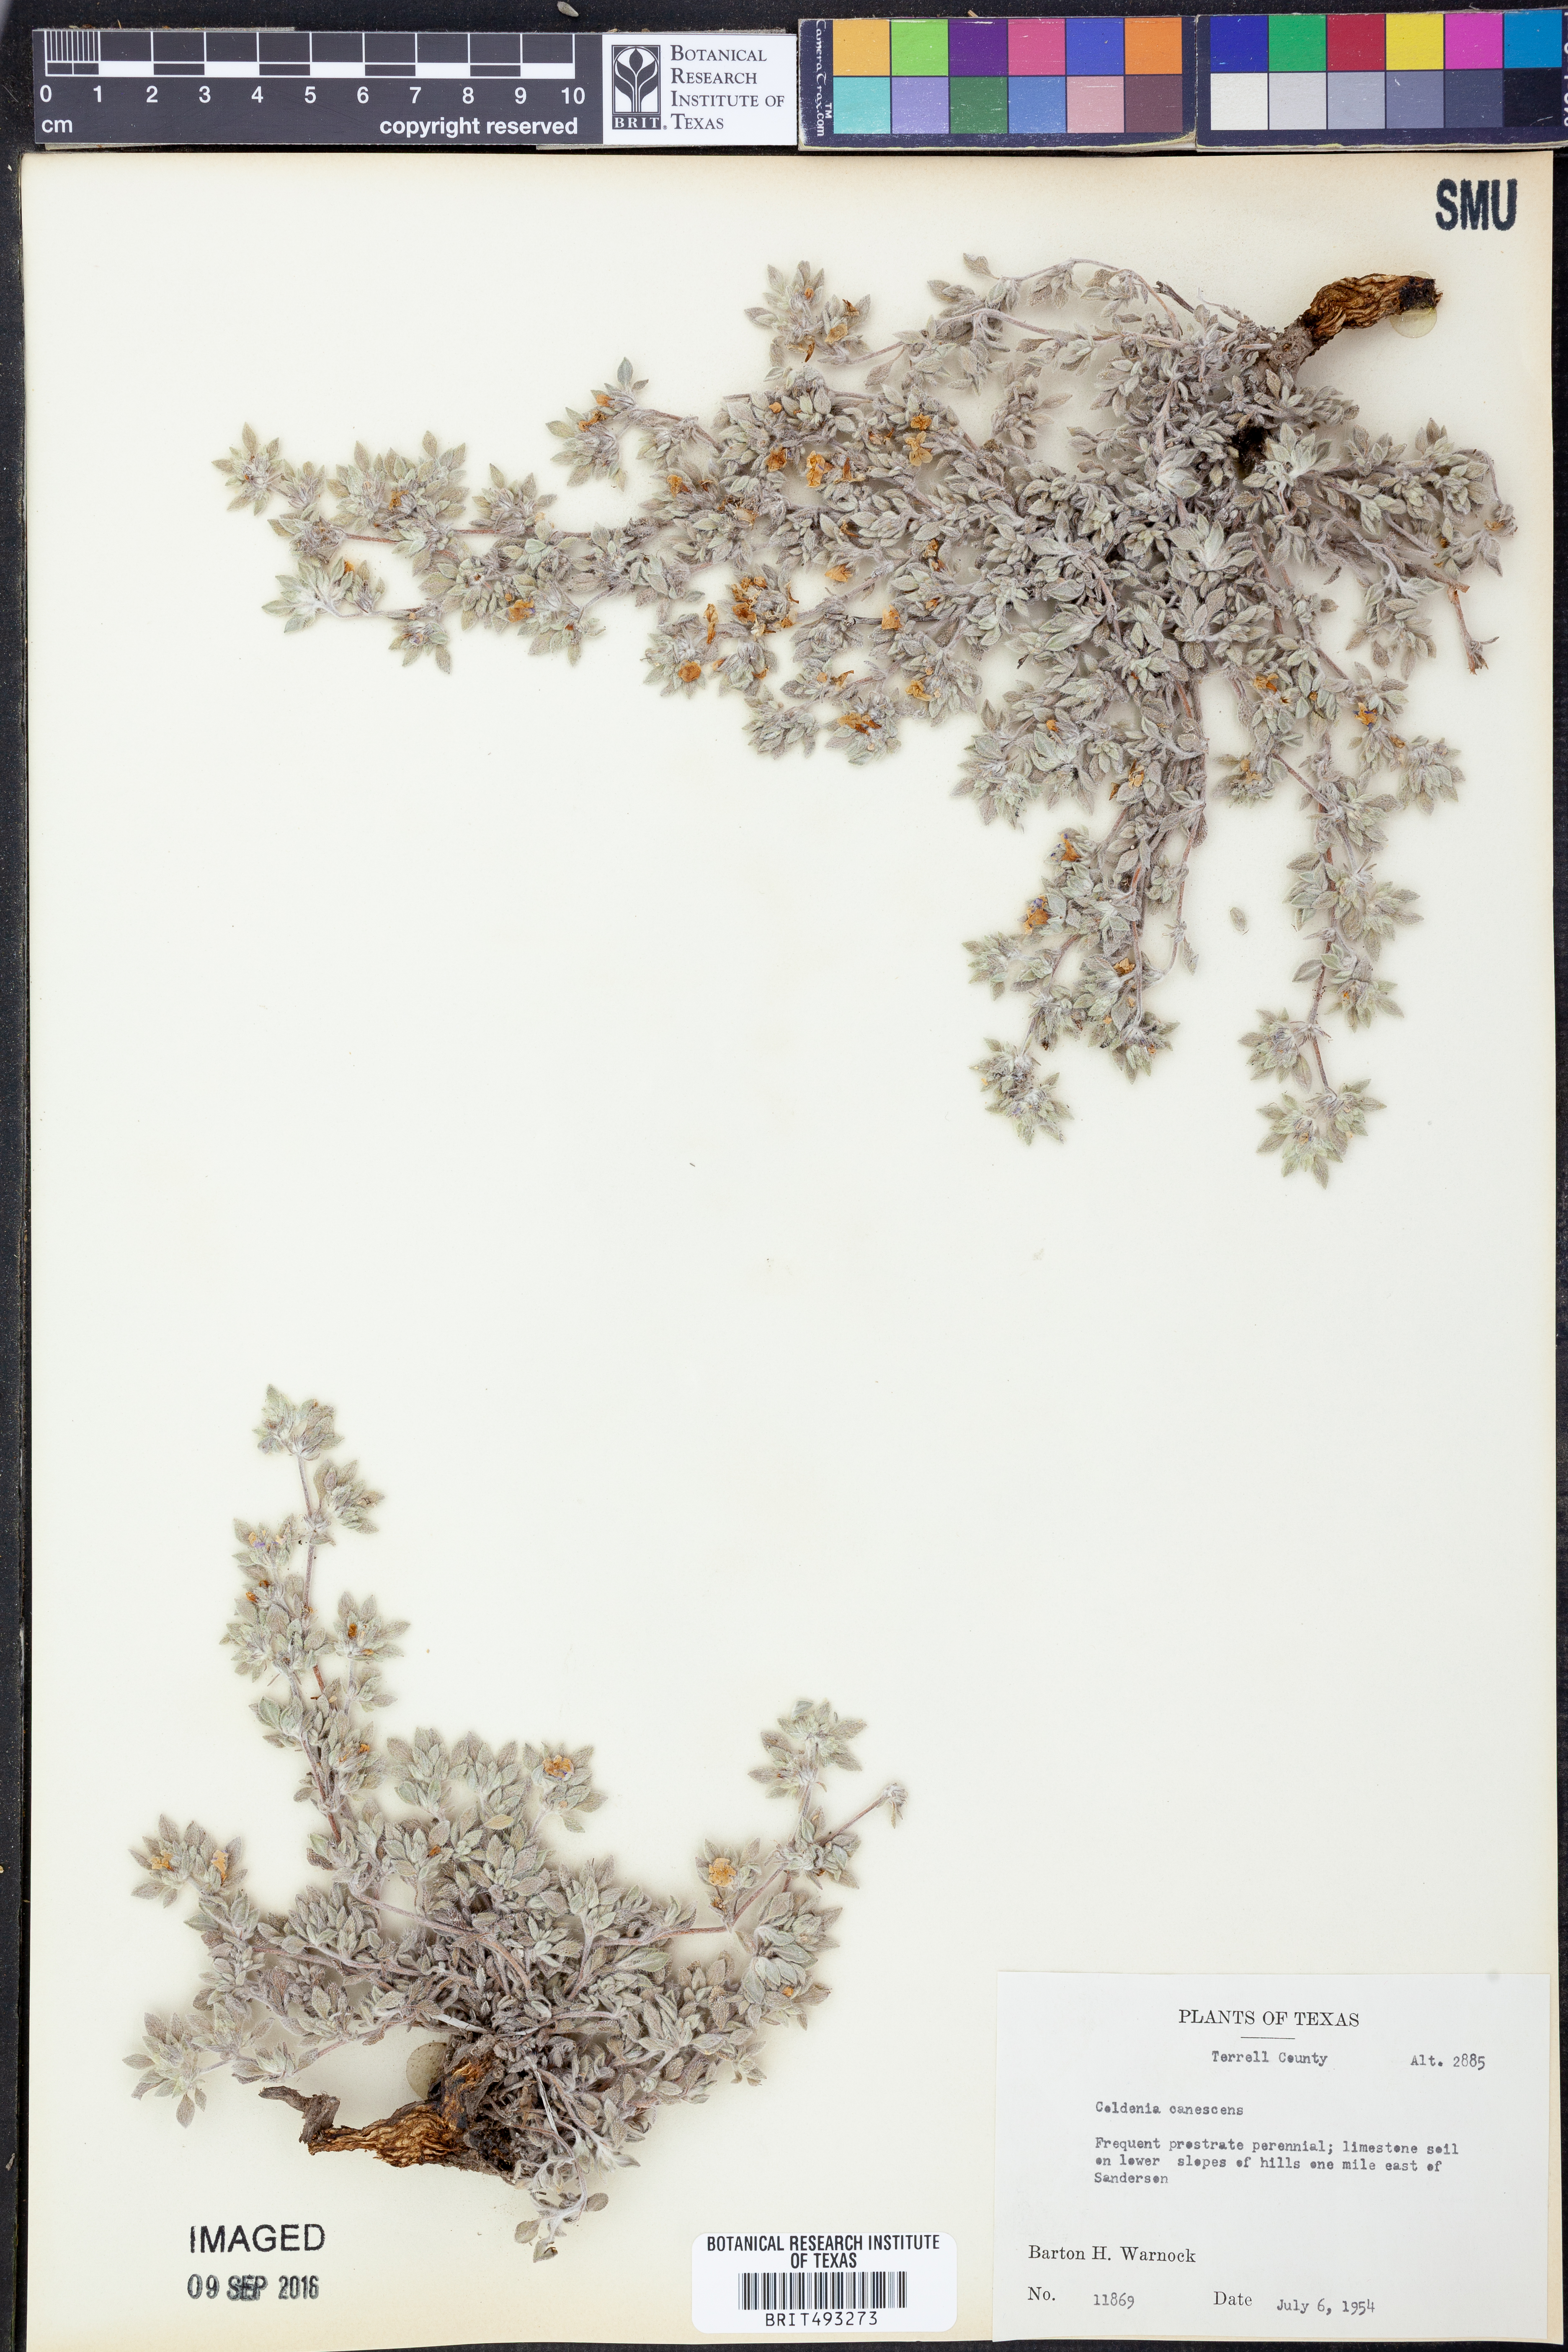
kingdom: Plantae
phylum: Tracheophyta
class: Magnoliopsida
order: Boraginales
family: Ehretiaceae
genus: Tiquilia
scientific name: Tiquilia canescens
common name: Hairy tiquilia
